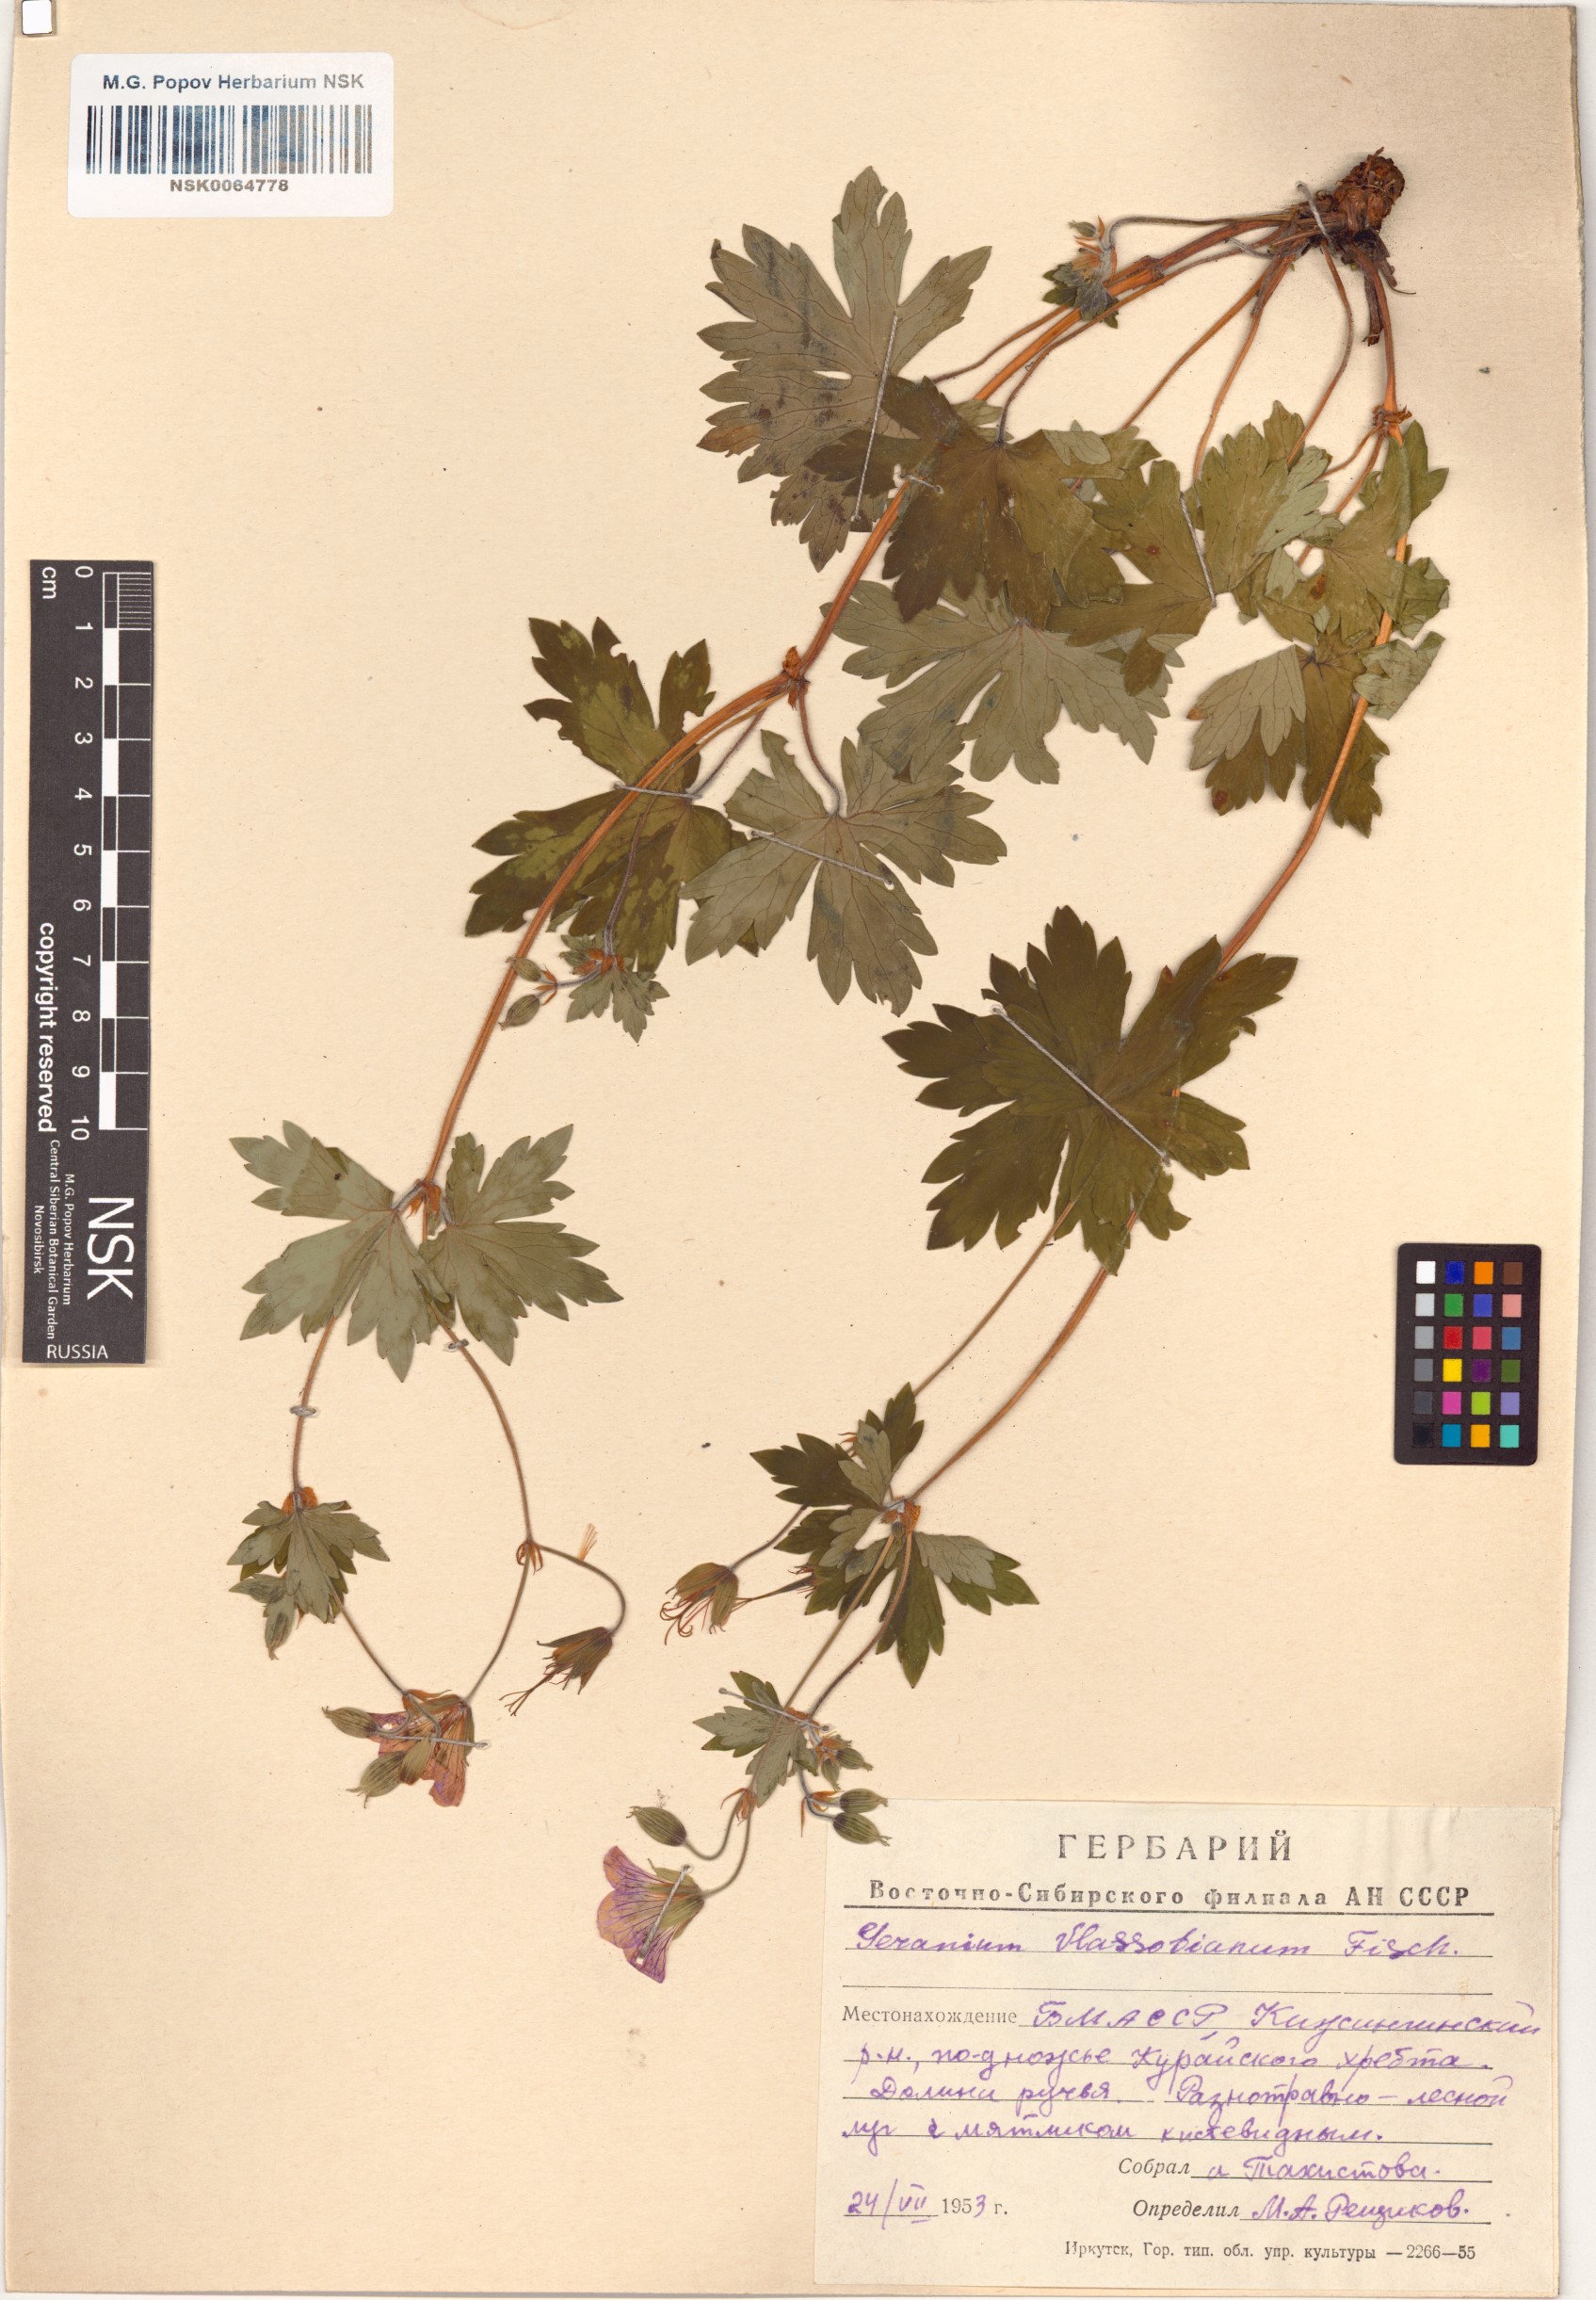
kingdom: Plantae
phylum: Tracheophyta
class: Magnoliopsida
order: Geraniales
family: Geraniaceae
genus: Geranium
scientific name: Geranium wlassovianum
